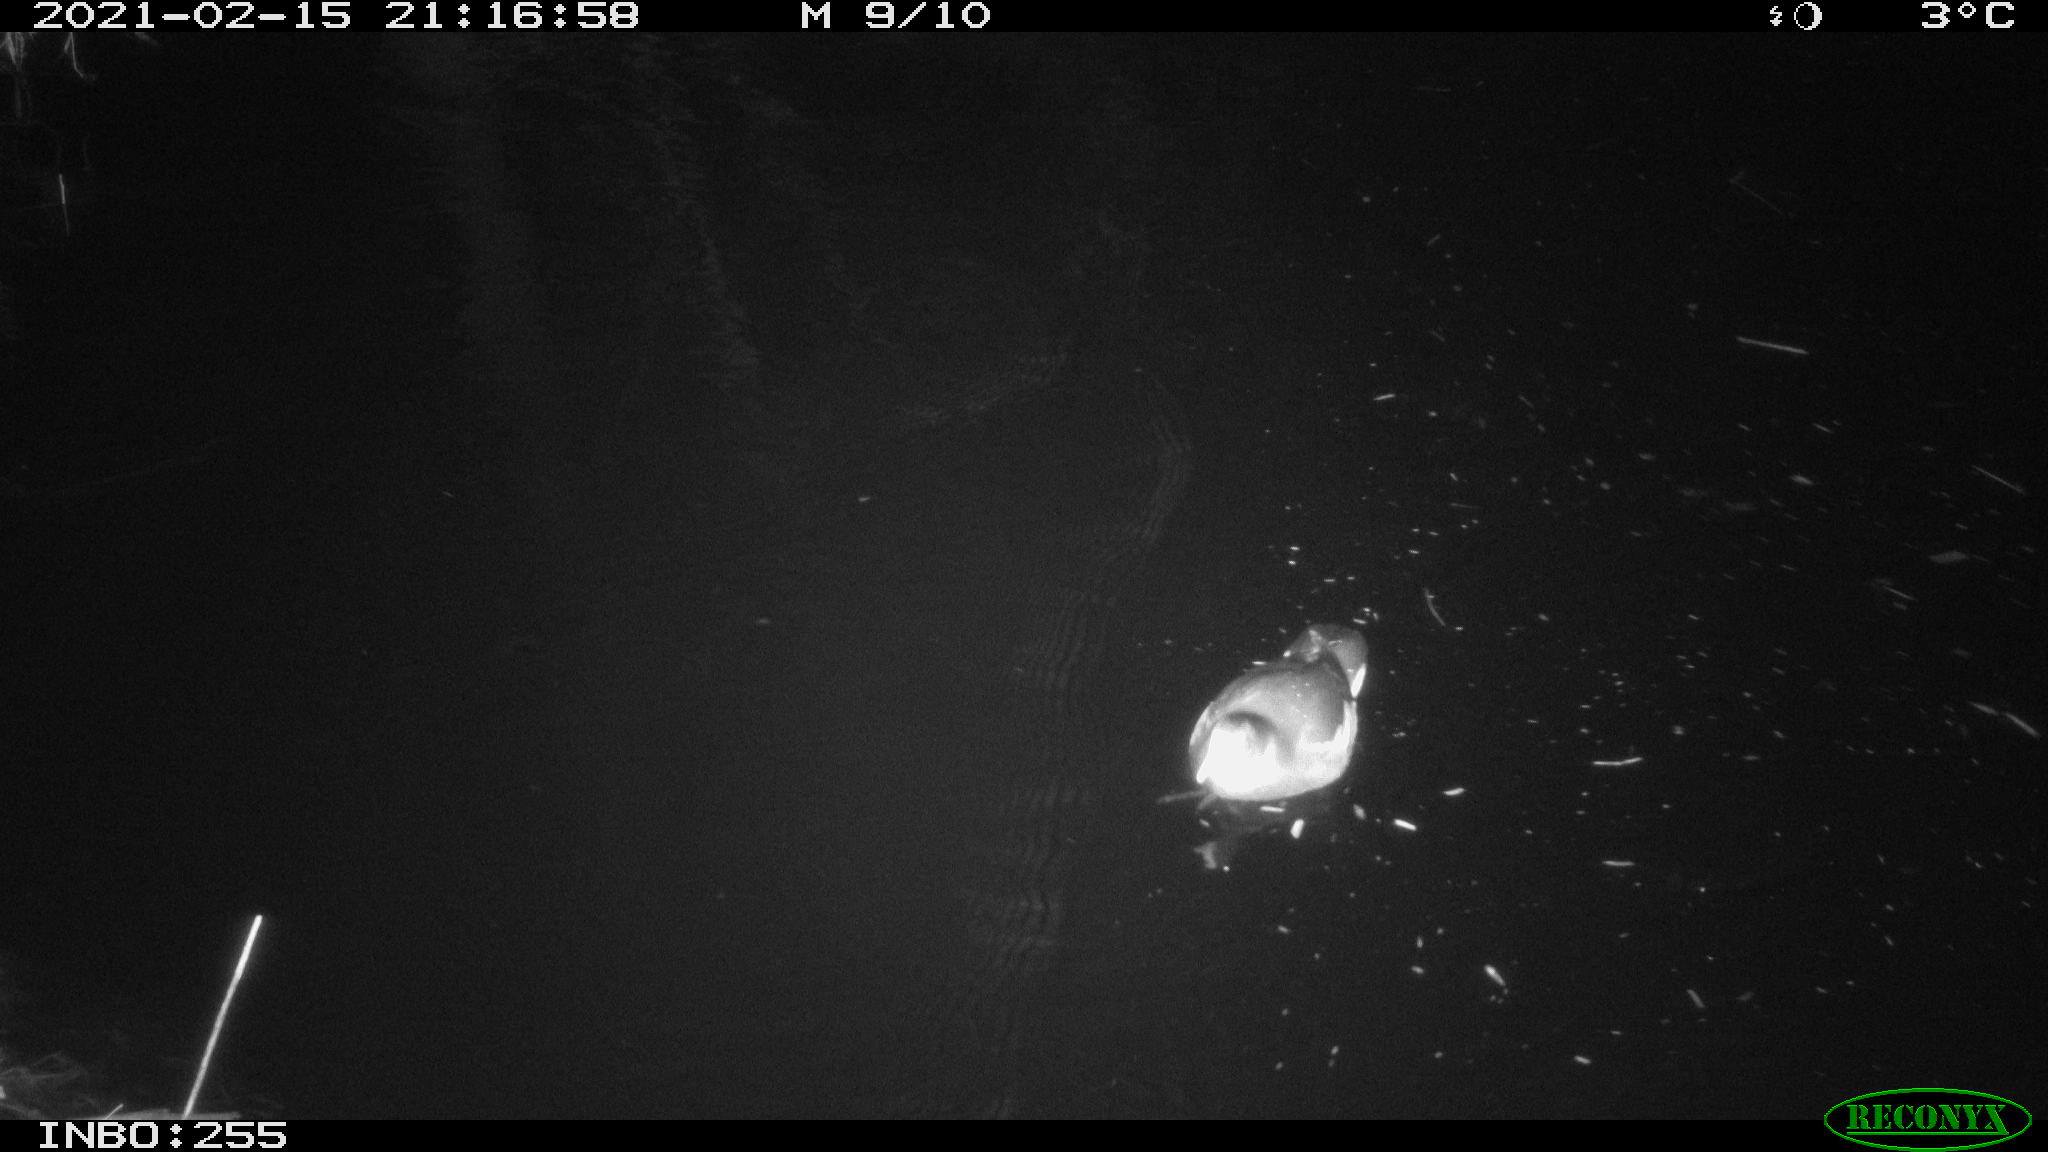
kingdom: Animalia
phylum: Chordata
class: Aves
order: Gruiformes
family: Rallidae
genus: Fulica
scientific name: Fulica atra
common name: Eurasian coot
